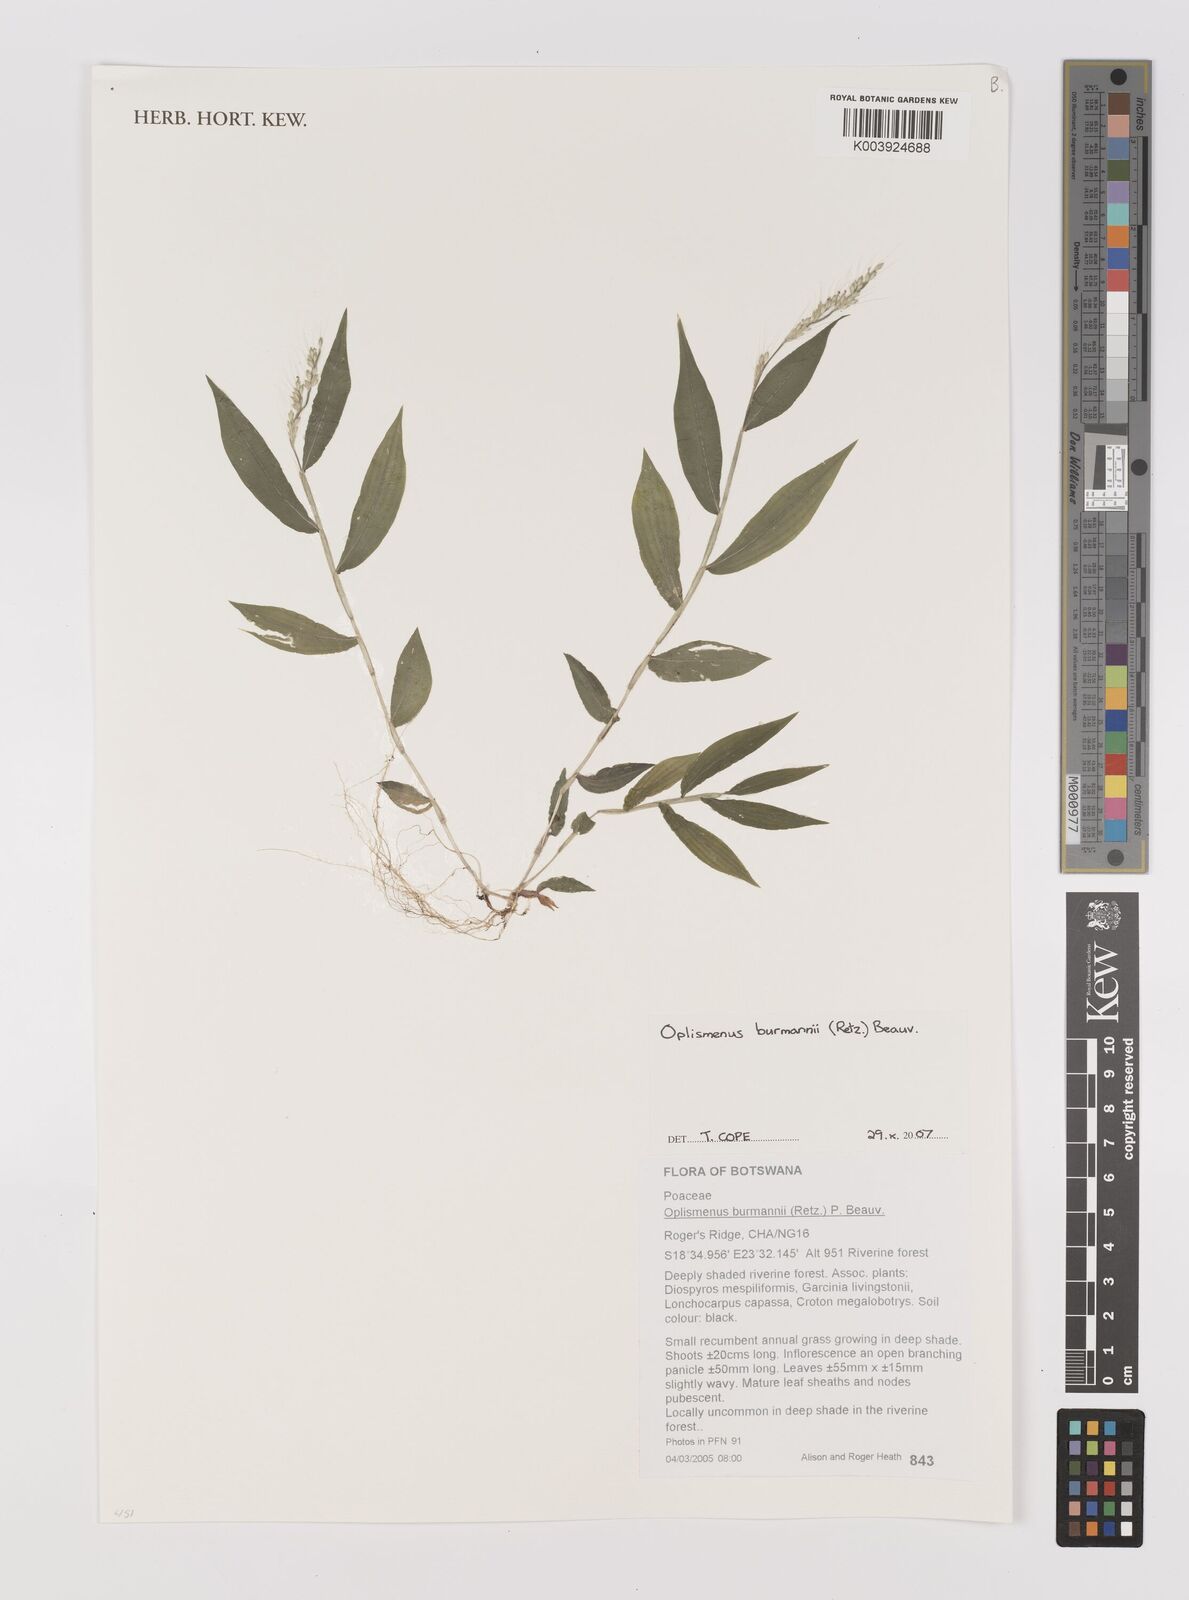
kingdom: Plantae
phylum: Tracheophyta
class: Liliopsida
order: Poales
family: Poaceae
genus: Oplismenus
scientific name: Oplismenus burmanni
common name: Burmann's basketgrass
